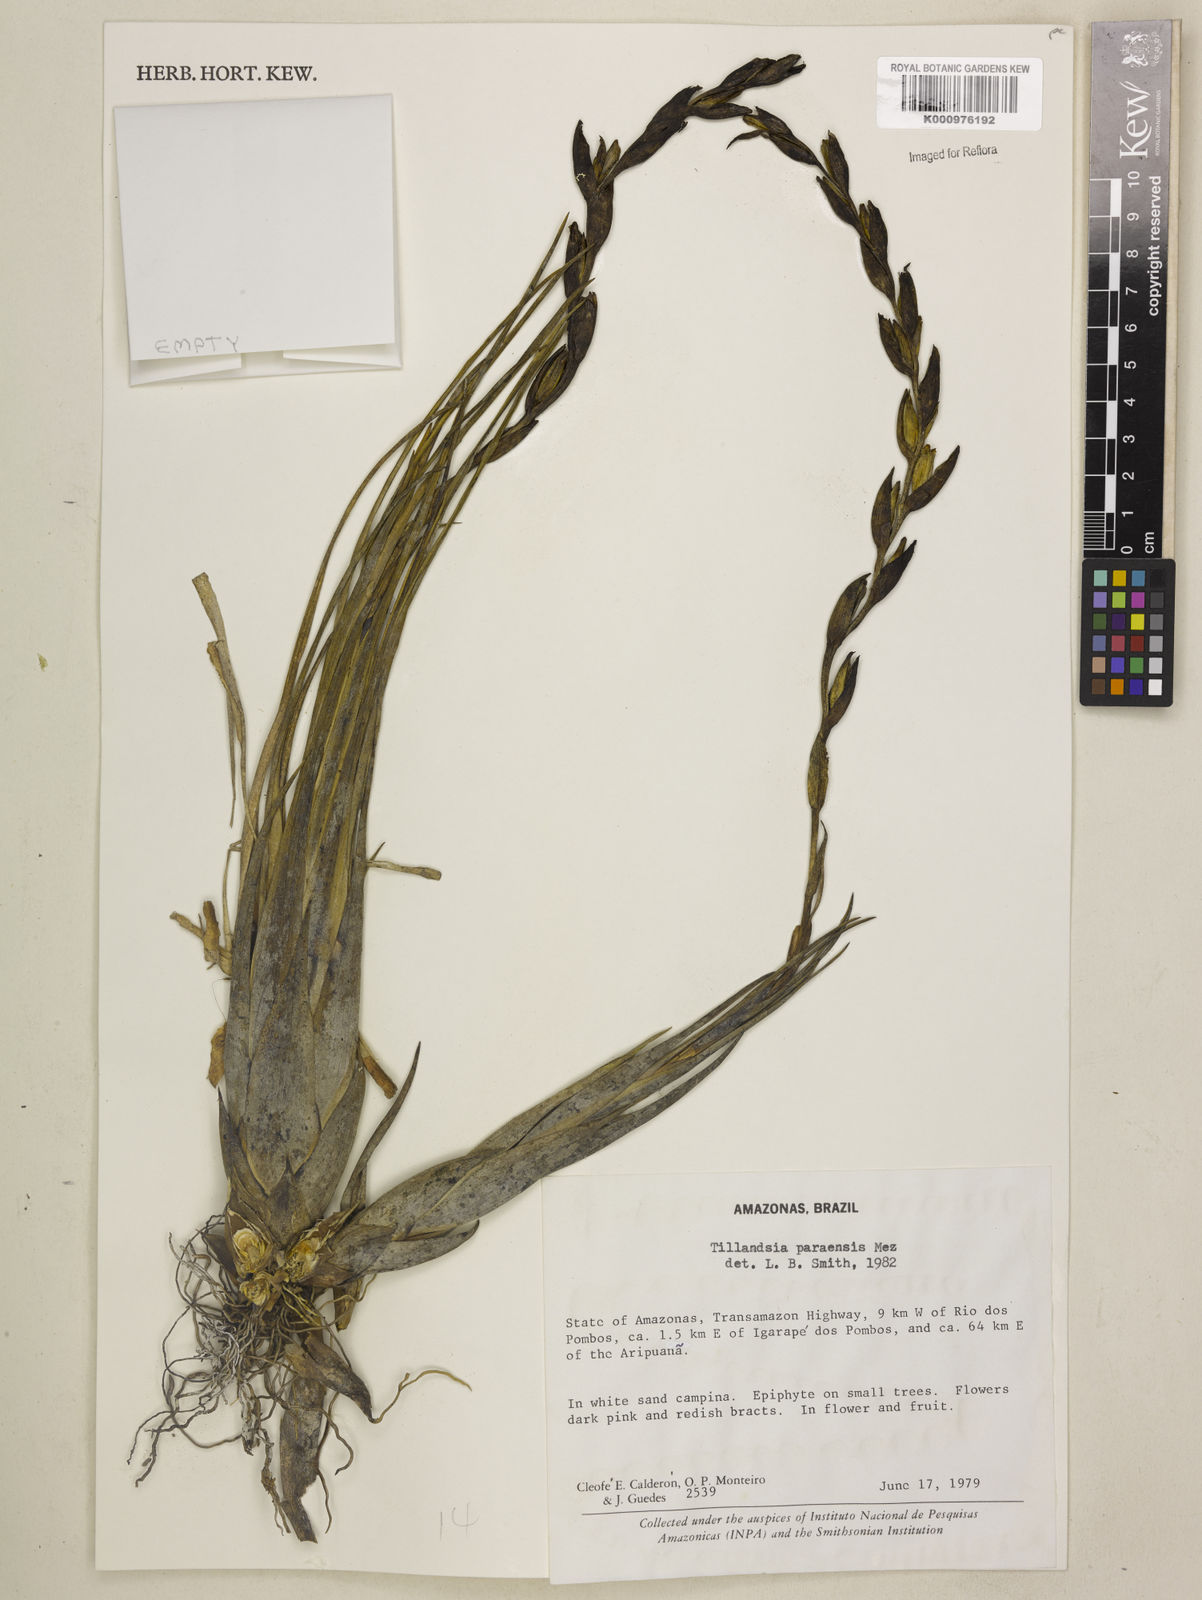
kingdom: Plantae
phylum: Tracheophyta
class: Liliopsida
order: Poales
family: Bromeliaceae
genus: Tillandsia
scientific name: Tillandsia paraensis
